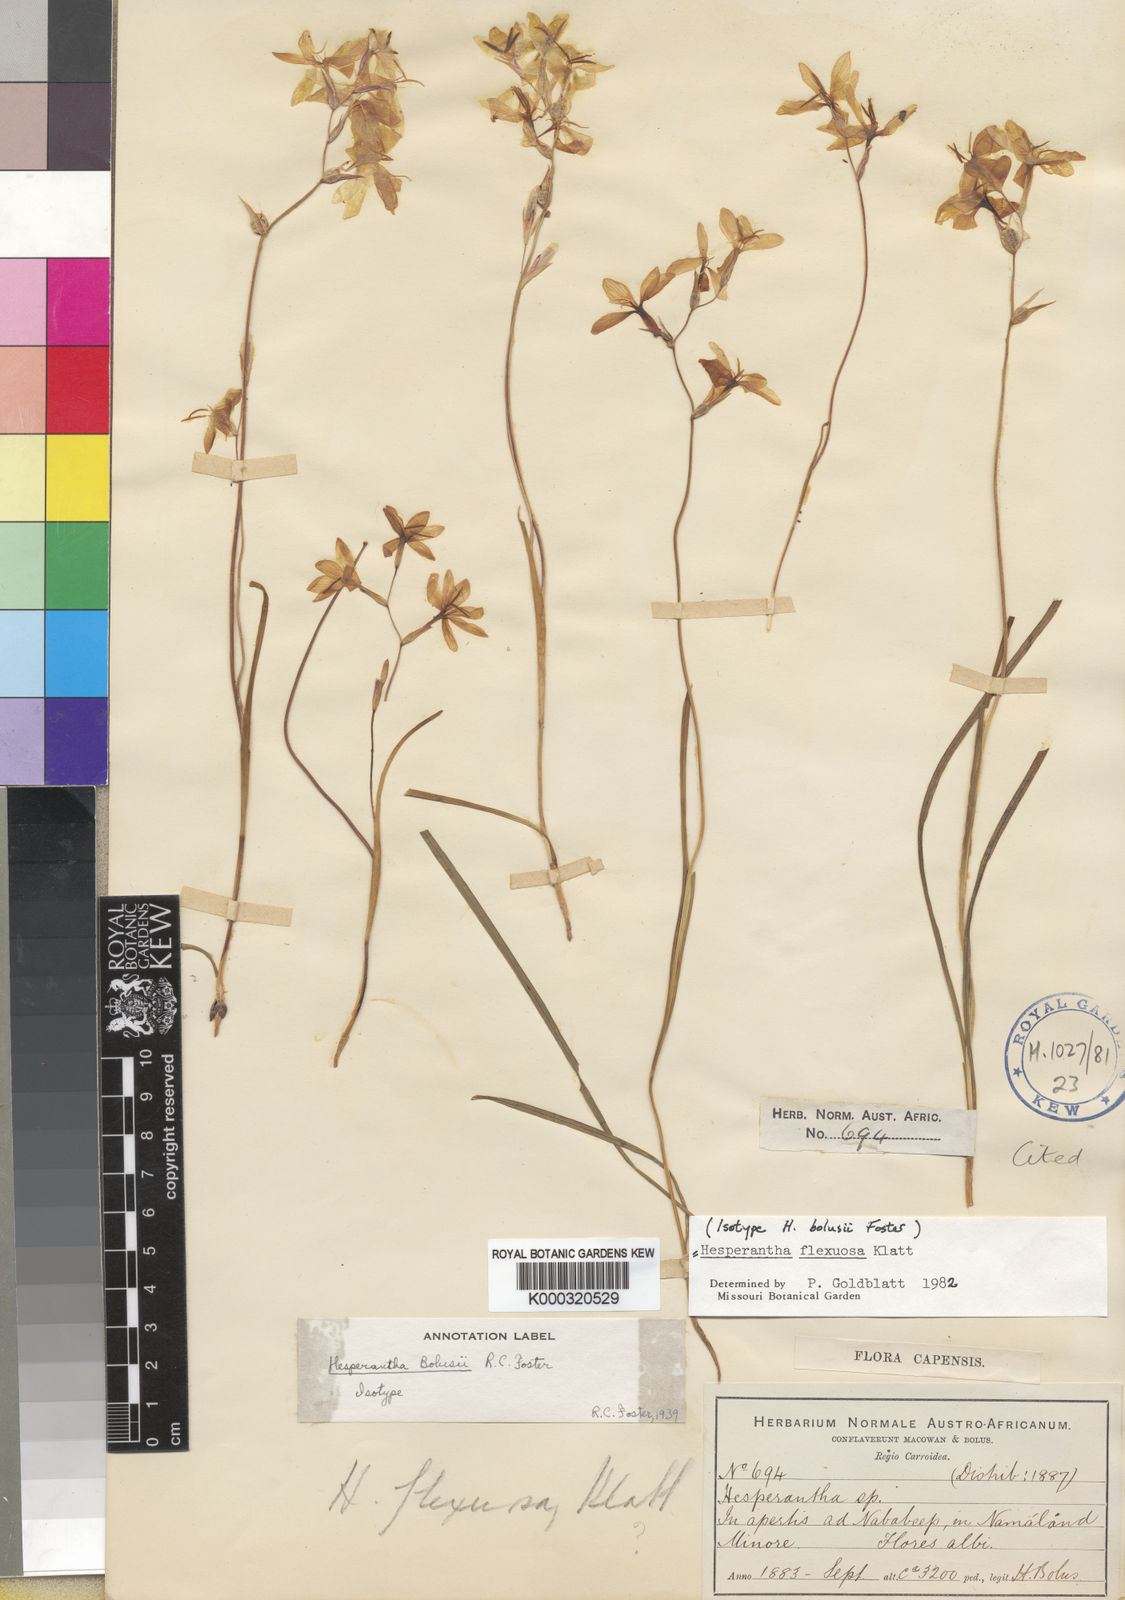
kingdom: Plantae
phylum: Tracheophyta
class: Liliopsida
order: Asparagales
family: Iridaceae
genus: Hesperantha
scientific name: Hesperantha flexuosa
